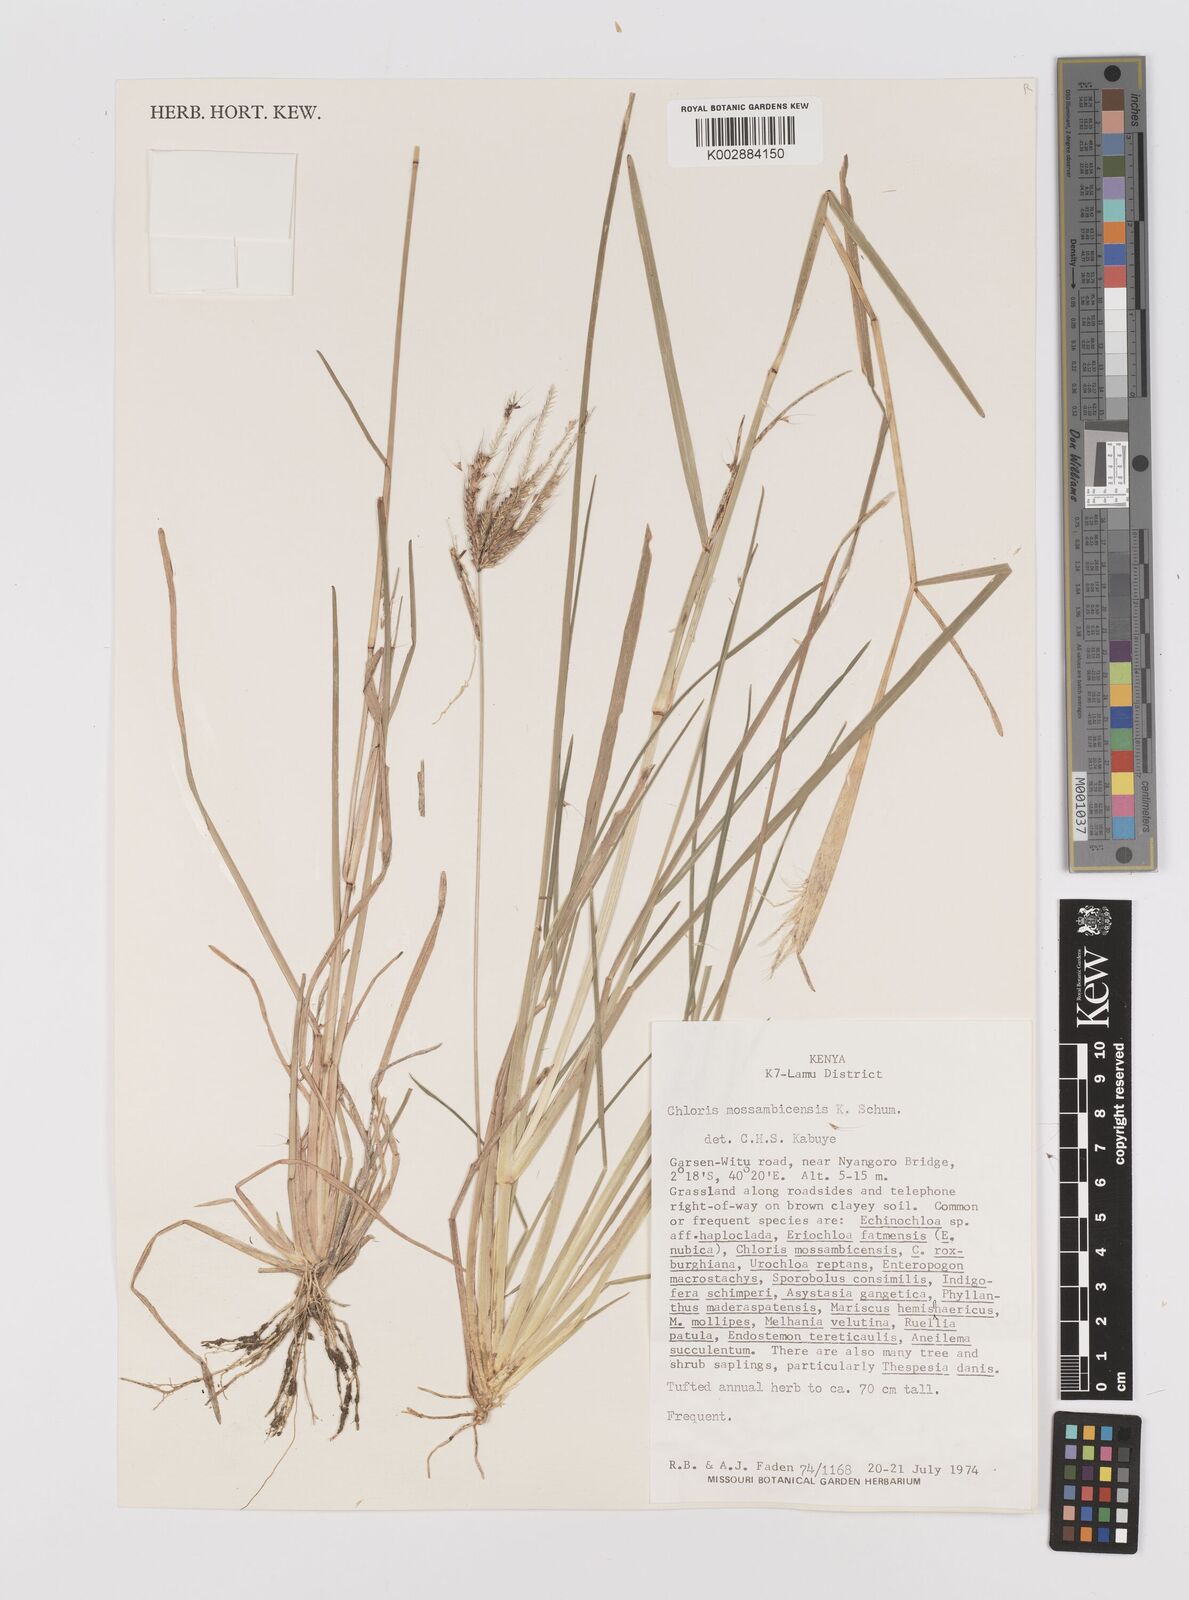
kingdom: Plantae
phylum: Tracheophyta
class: Liliopsida
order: Poales
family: Poaceae
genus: Chloris
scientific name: Chloris mossambicensis
